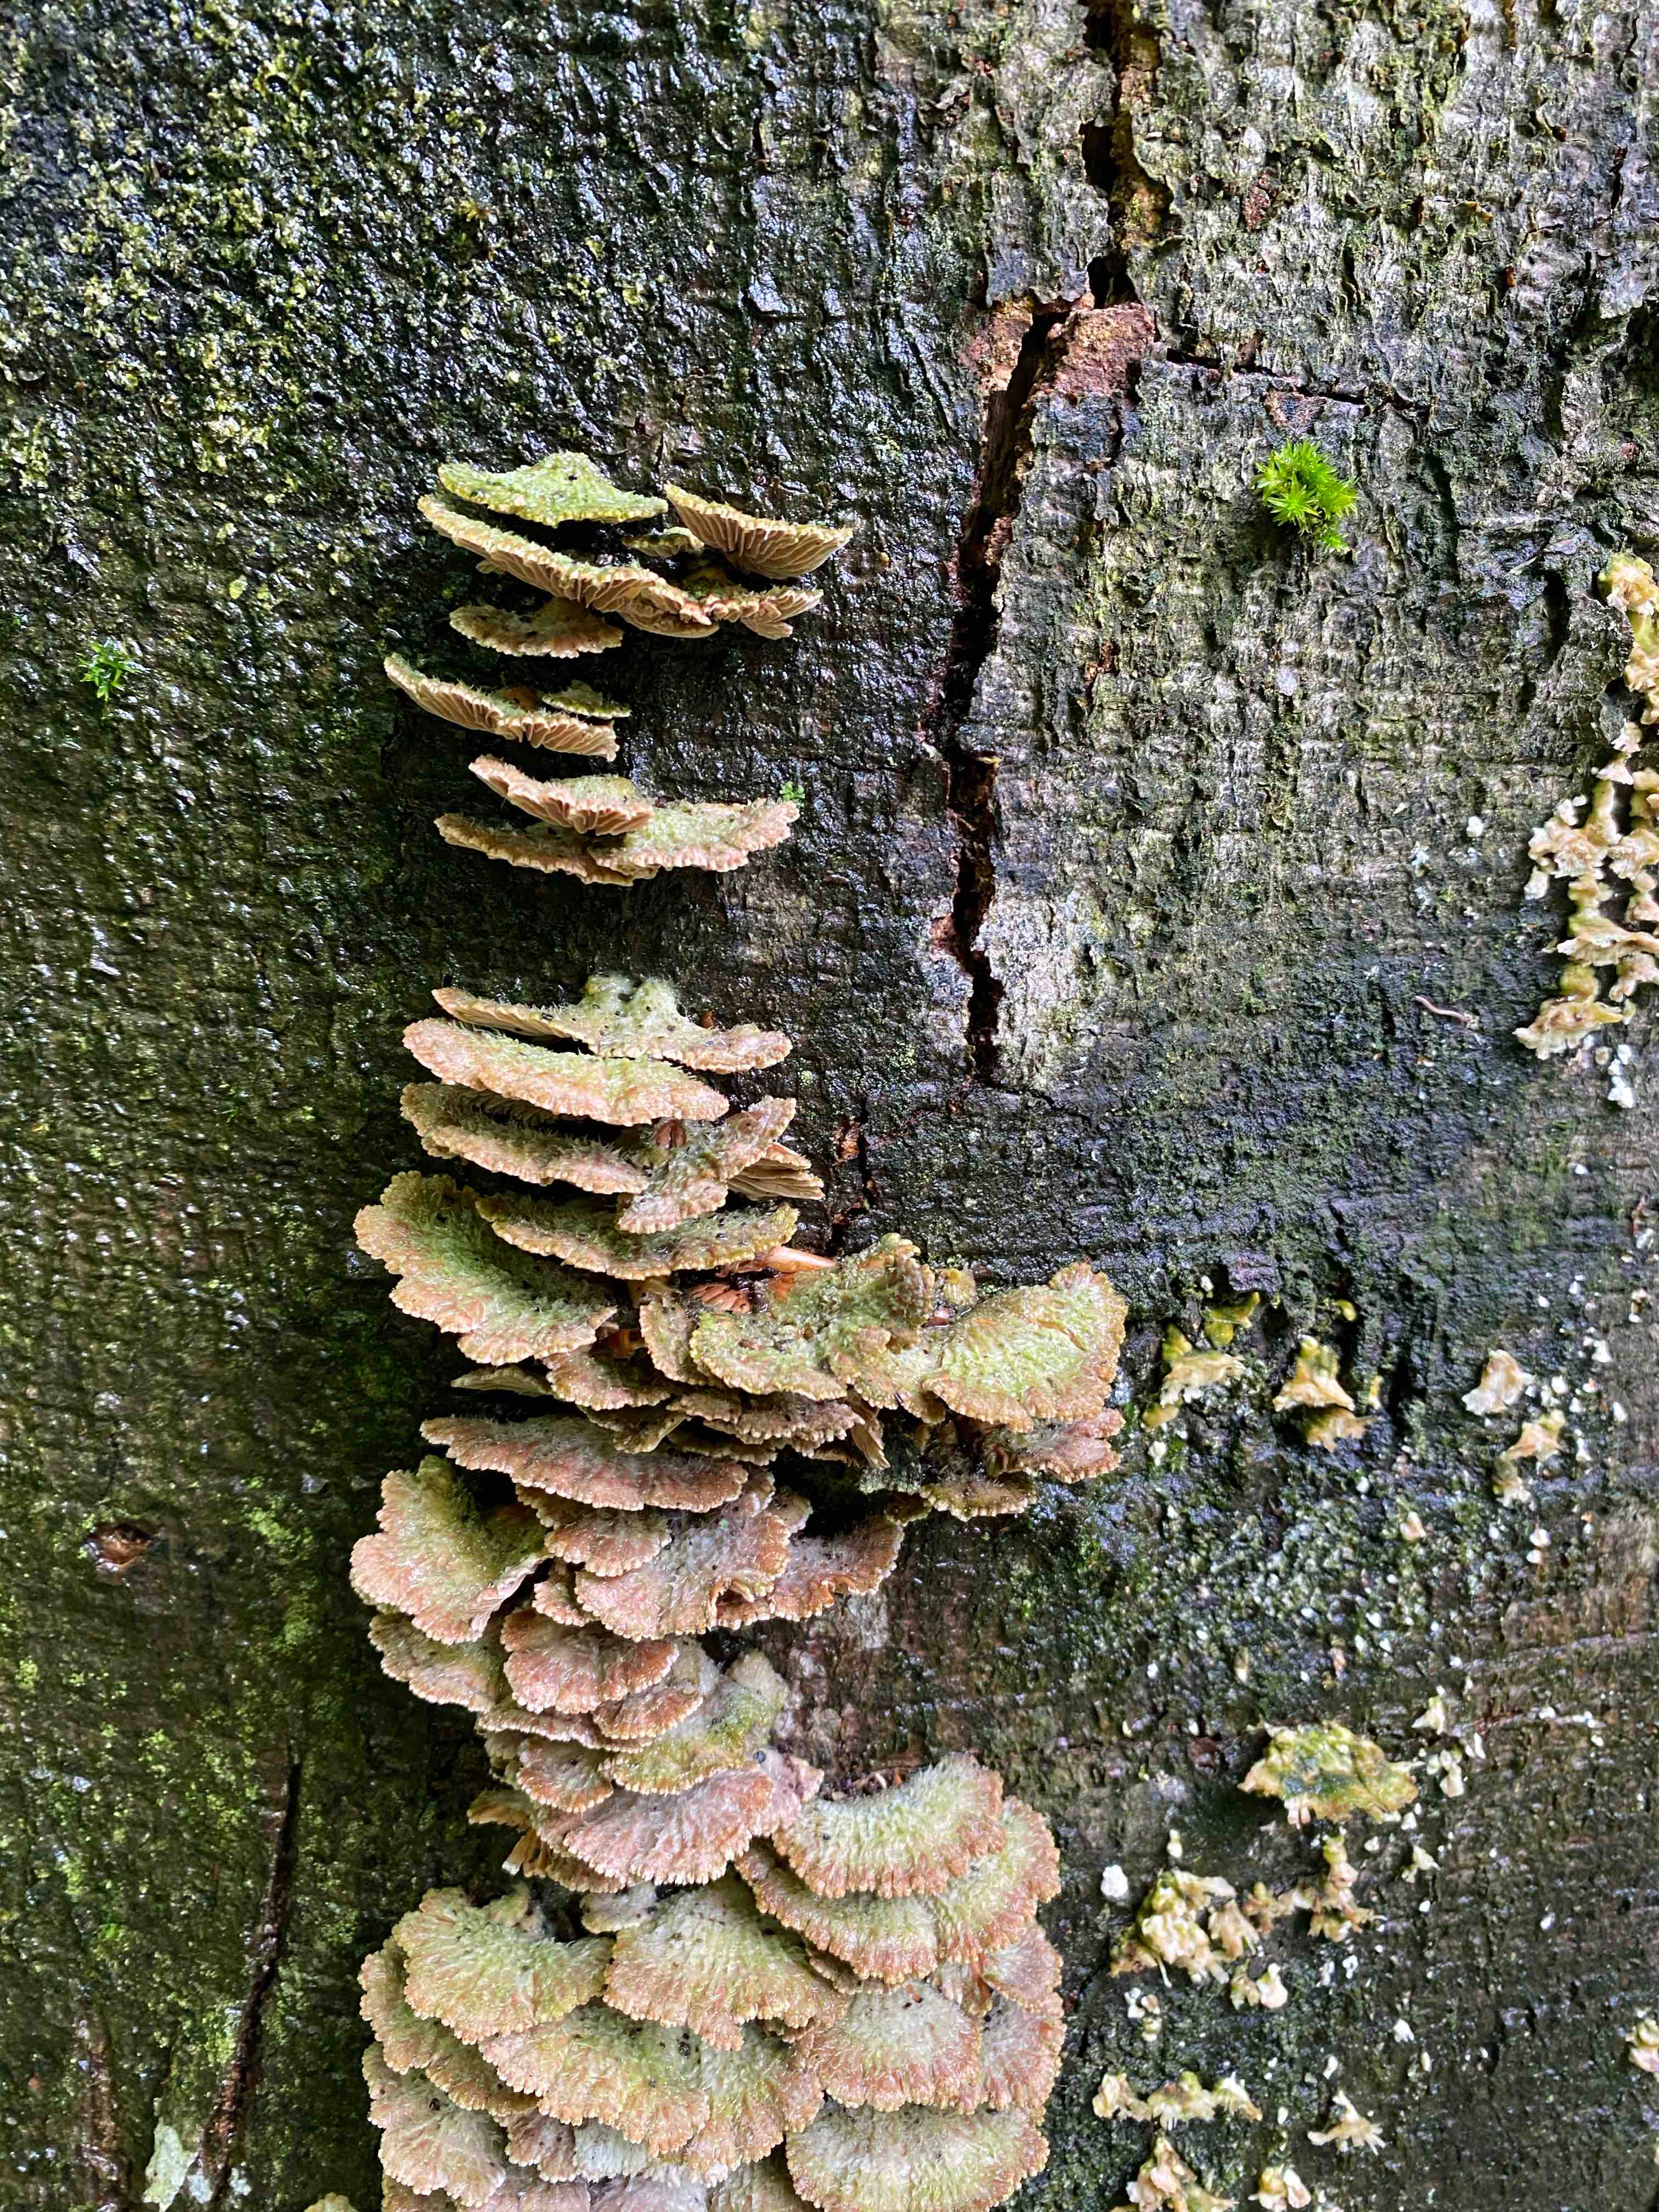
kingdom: Fungi
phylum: Basidiomycota
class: Agaricomycetes
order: Agaricales
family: Schizophyllaceae
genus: Schizophyllum
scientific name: Schizophyllum commune
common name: kløvblad
